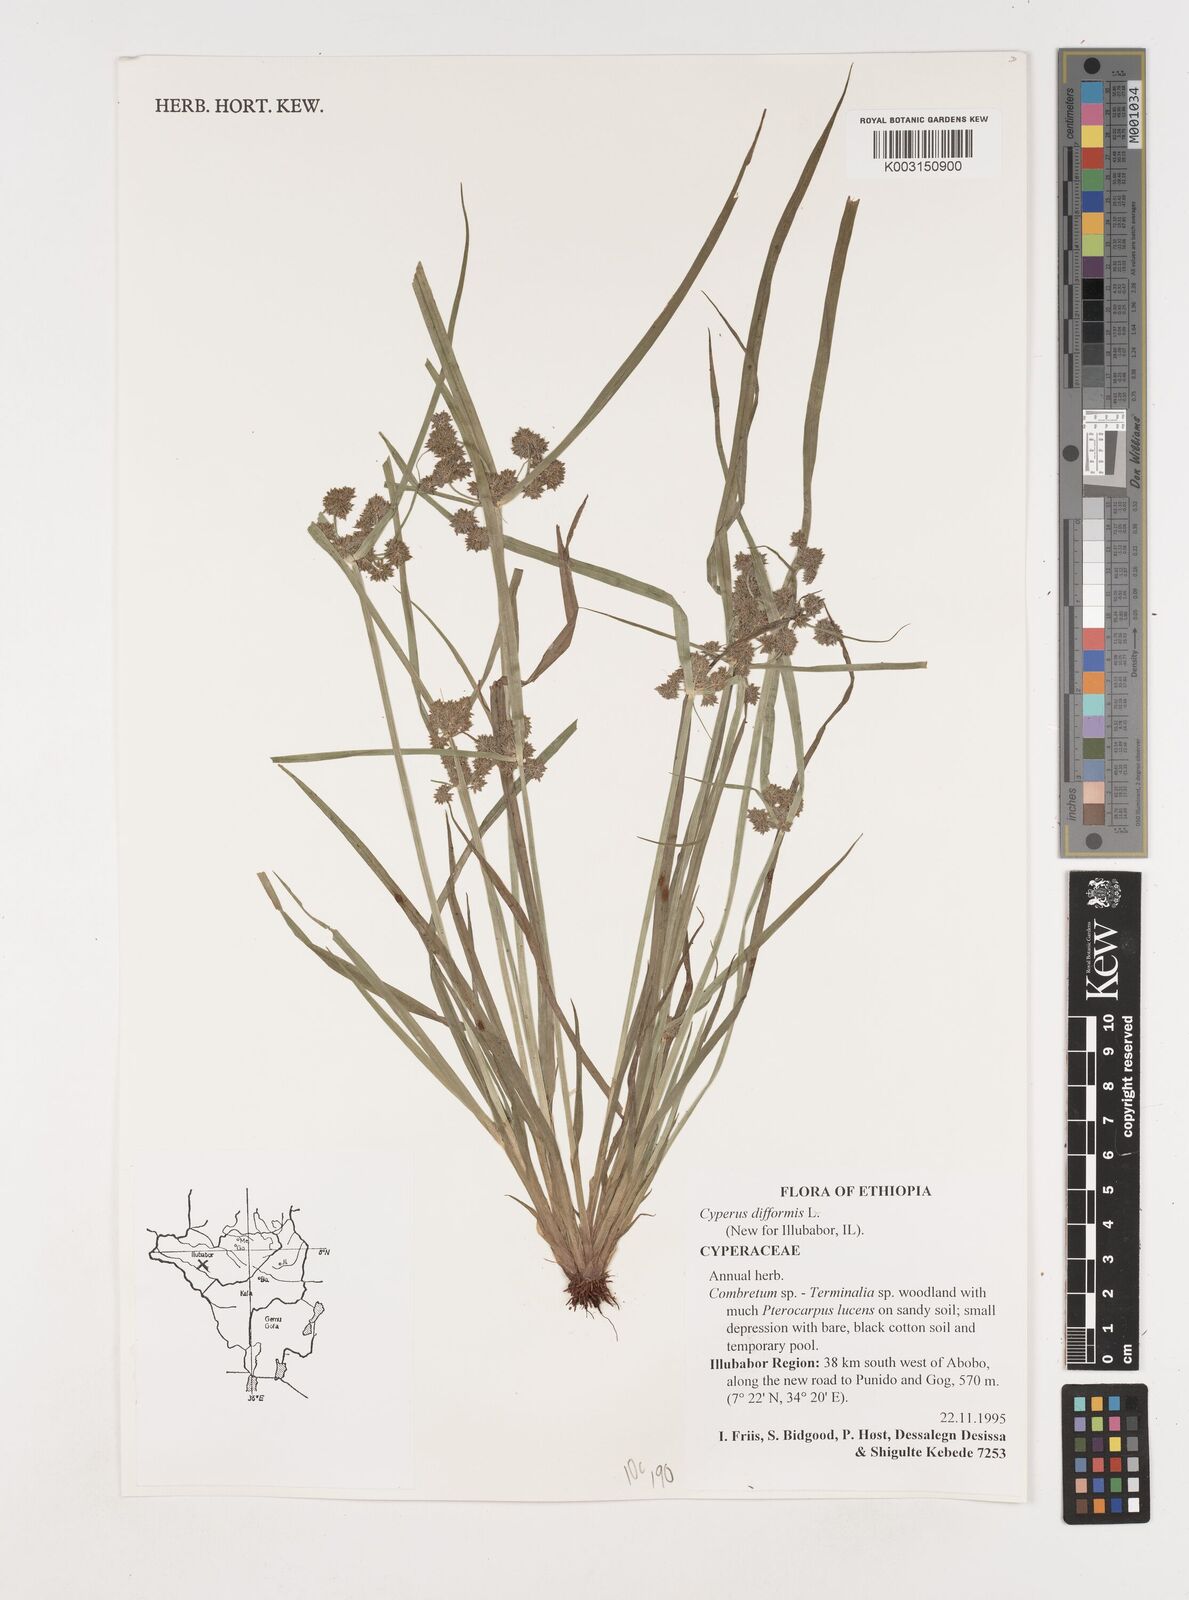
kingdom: Plantae
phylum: Tracheophyta
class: Liliopsida
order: Poales
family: Cyperaceae
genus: Cyperus
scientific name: Cyperus difformis
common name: Variable flatsedge
